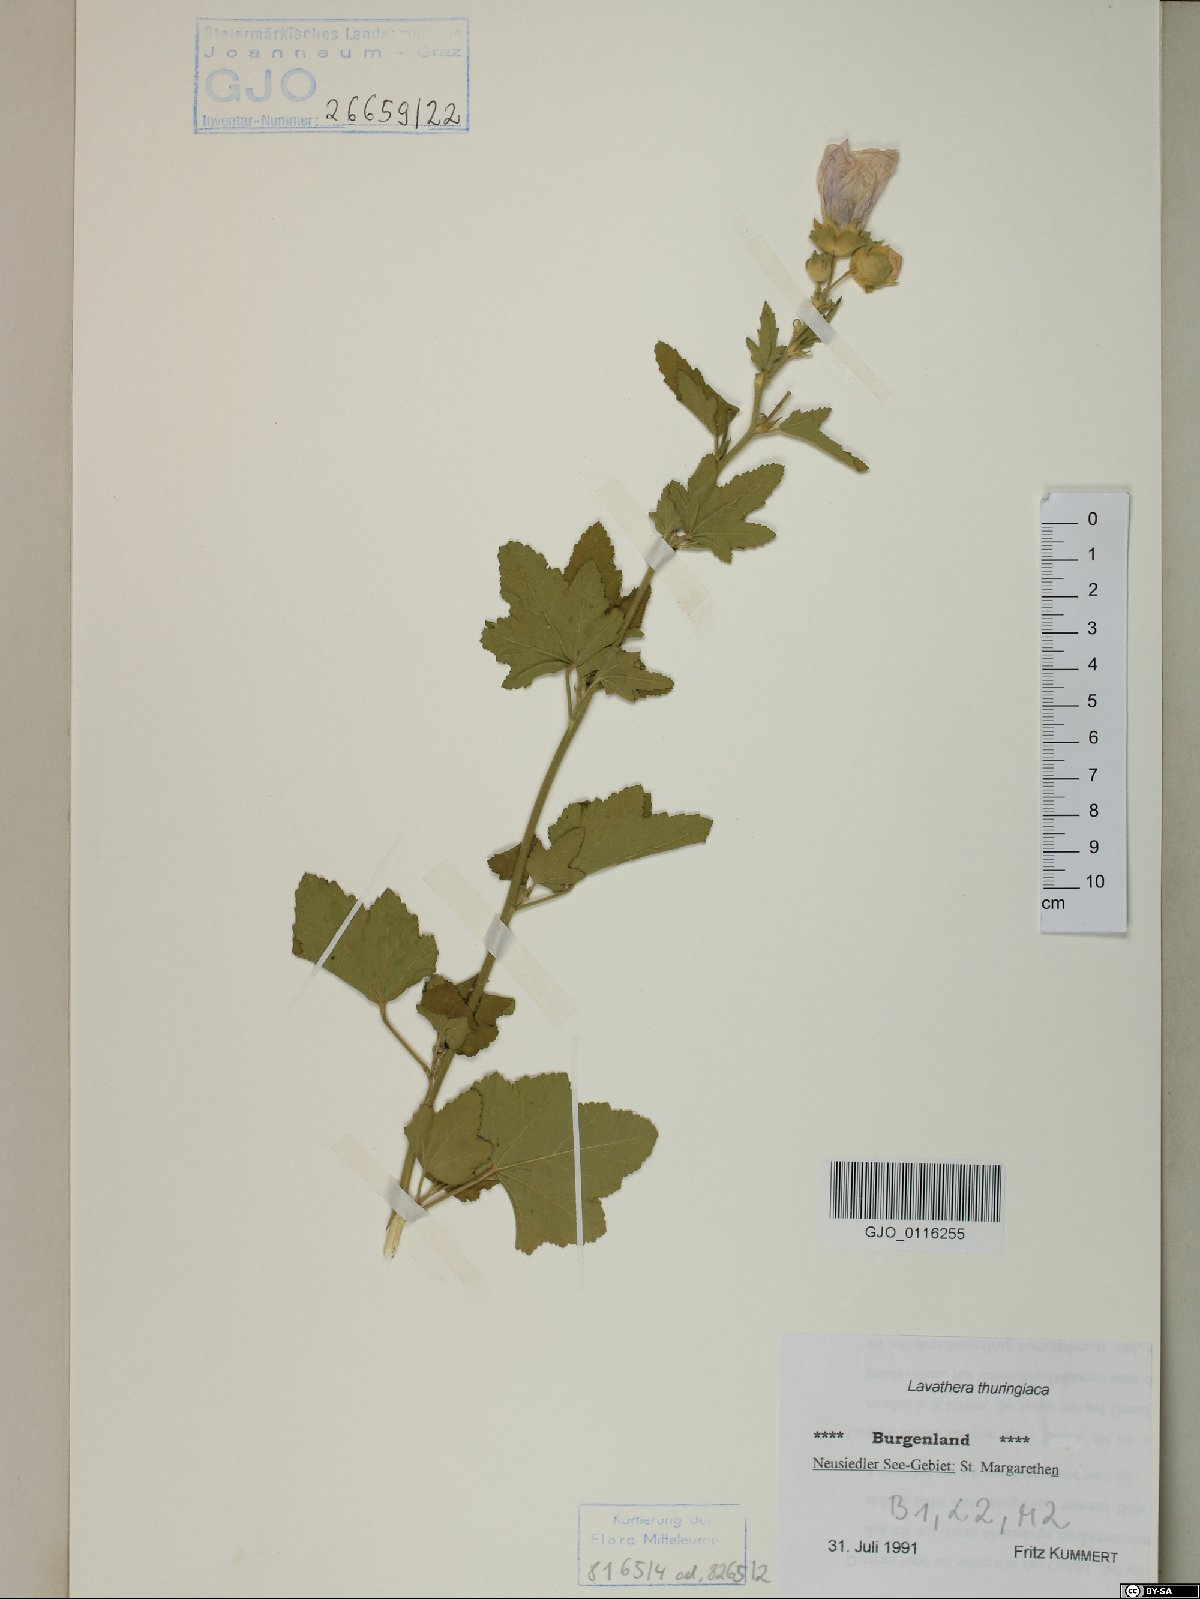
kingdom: Plantae
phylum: Tracheophyta
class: Magnoliopsida
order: Malvales
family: Malvaceae
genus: Malva
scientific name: Malva thuringiaca
